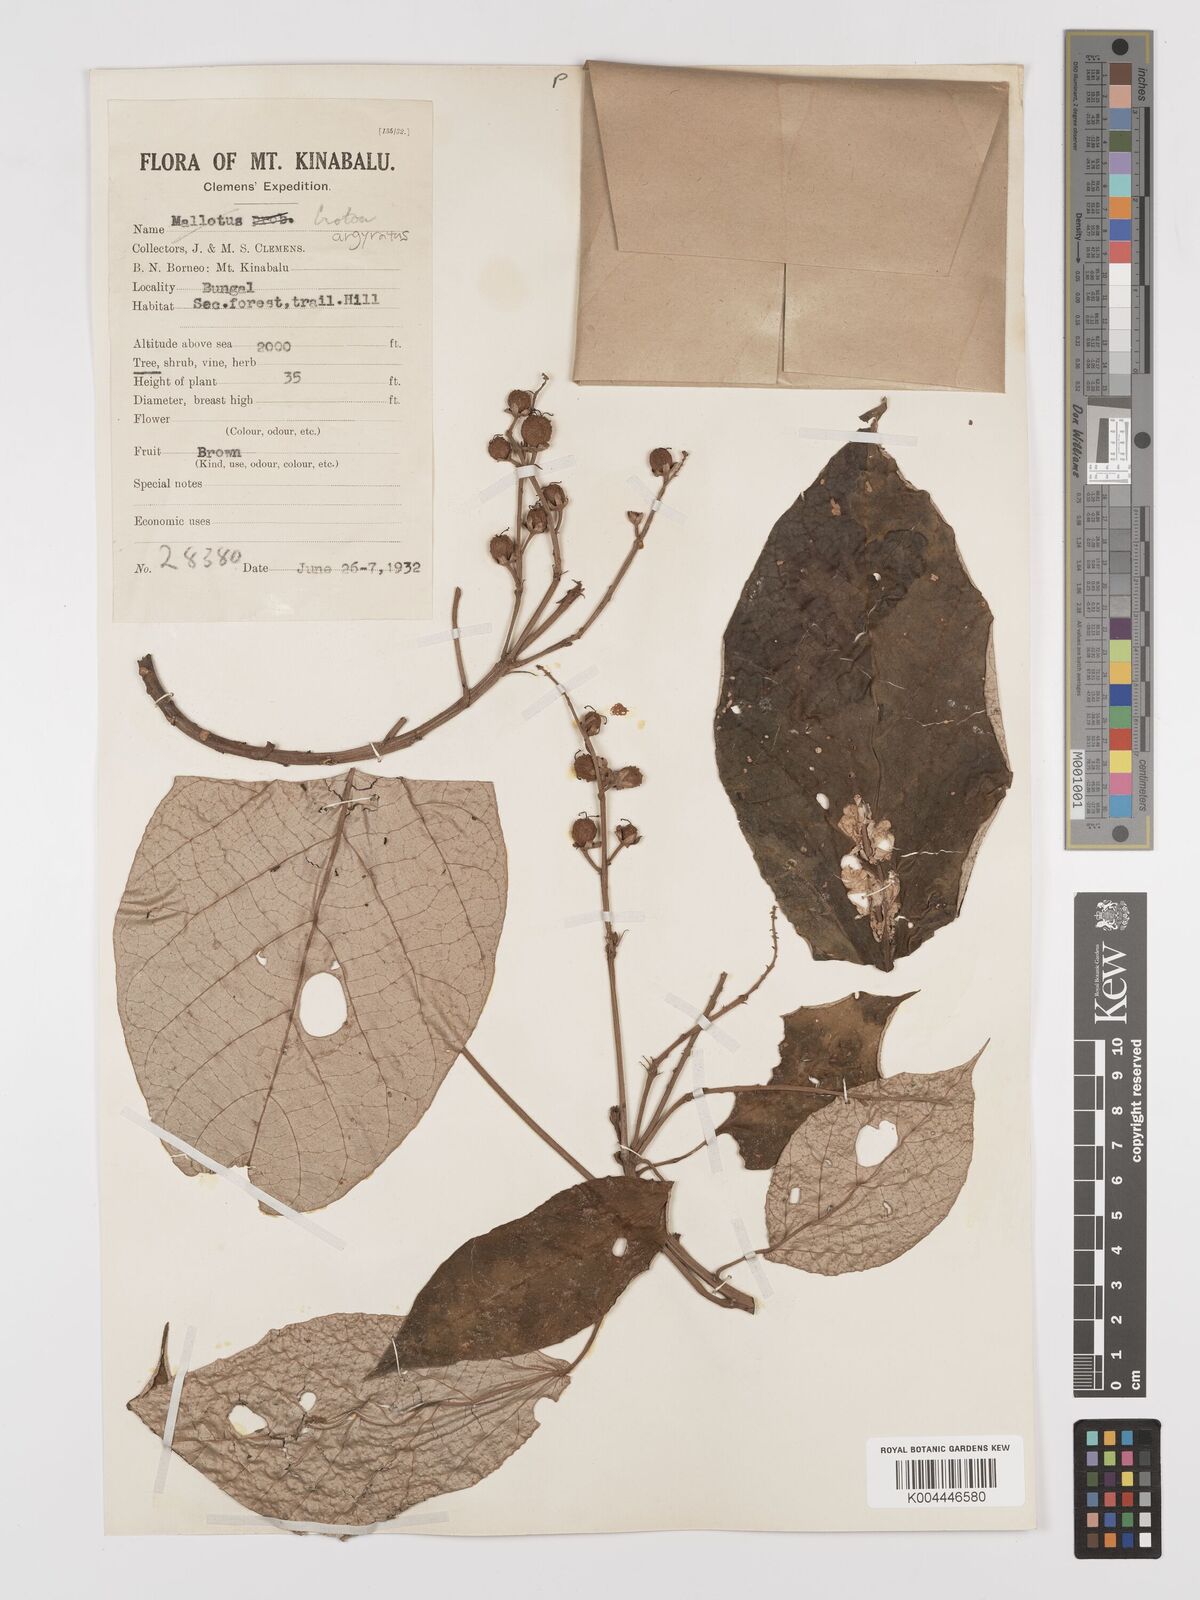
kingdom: Plantae
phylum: Tracheophyta
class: Magnoliopsida
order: Malpighiales
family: Euphorbiaceae
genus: Croton
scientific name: Croton argyratus
